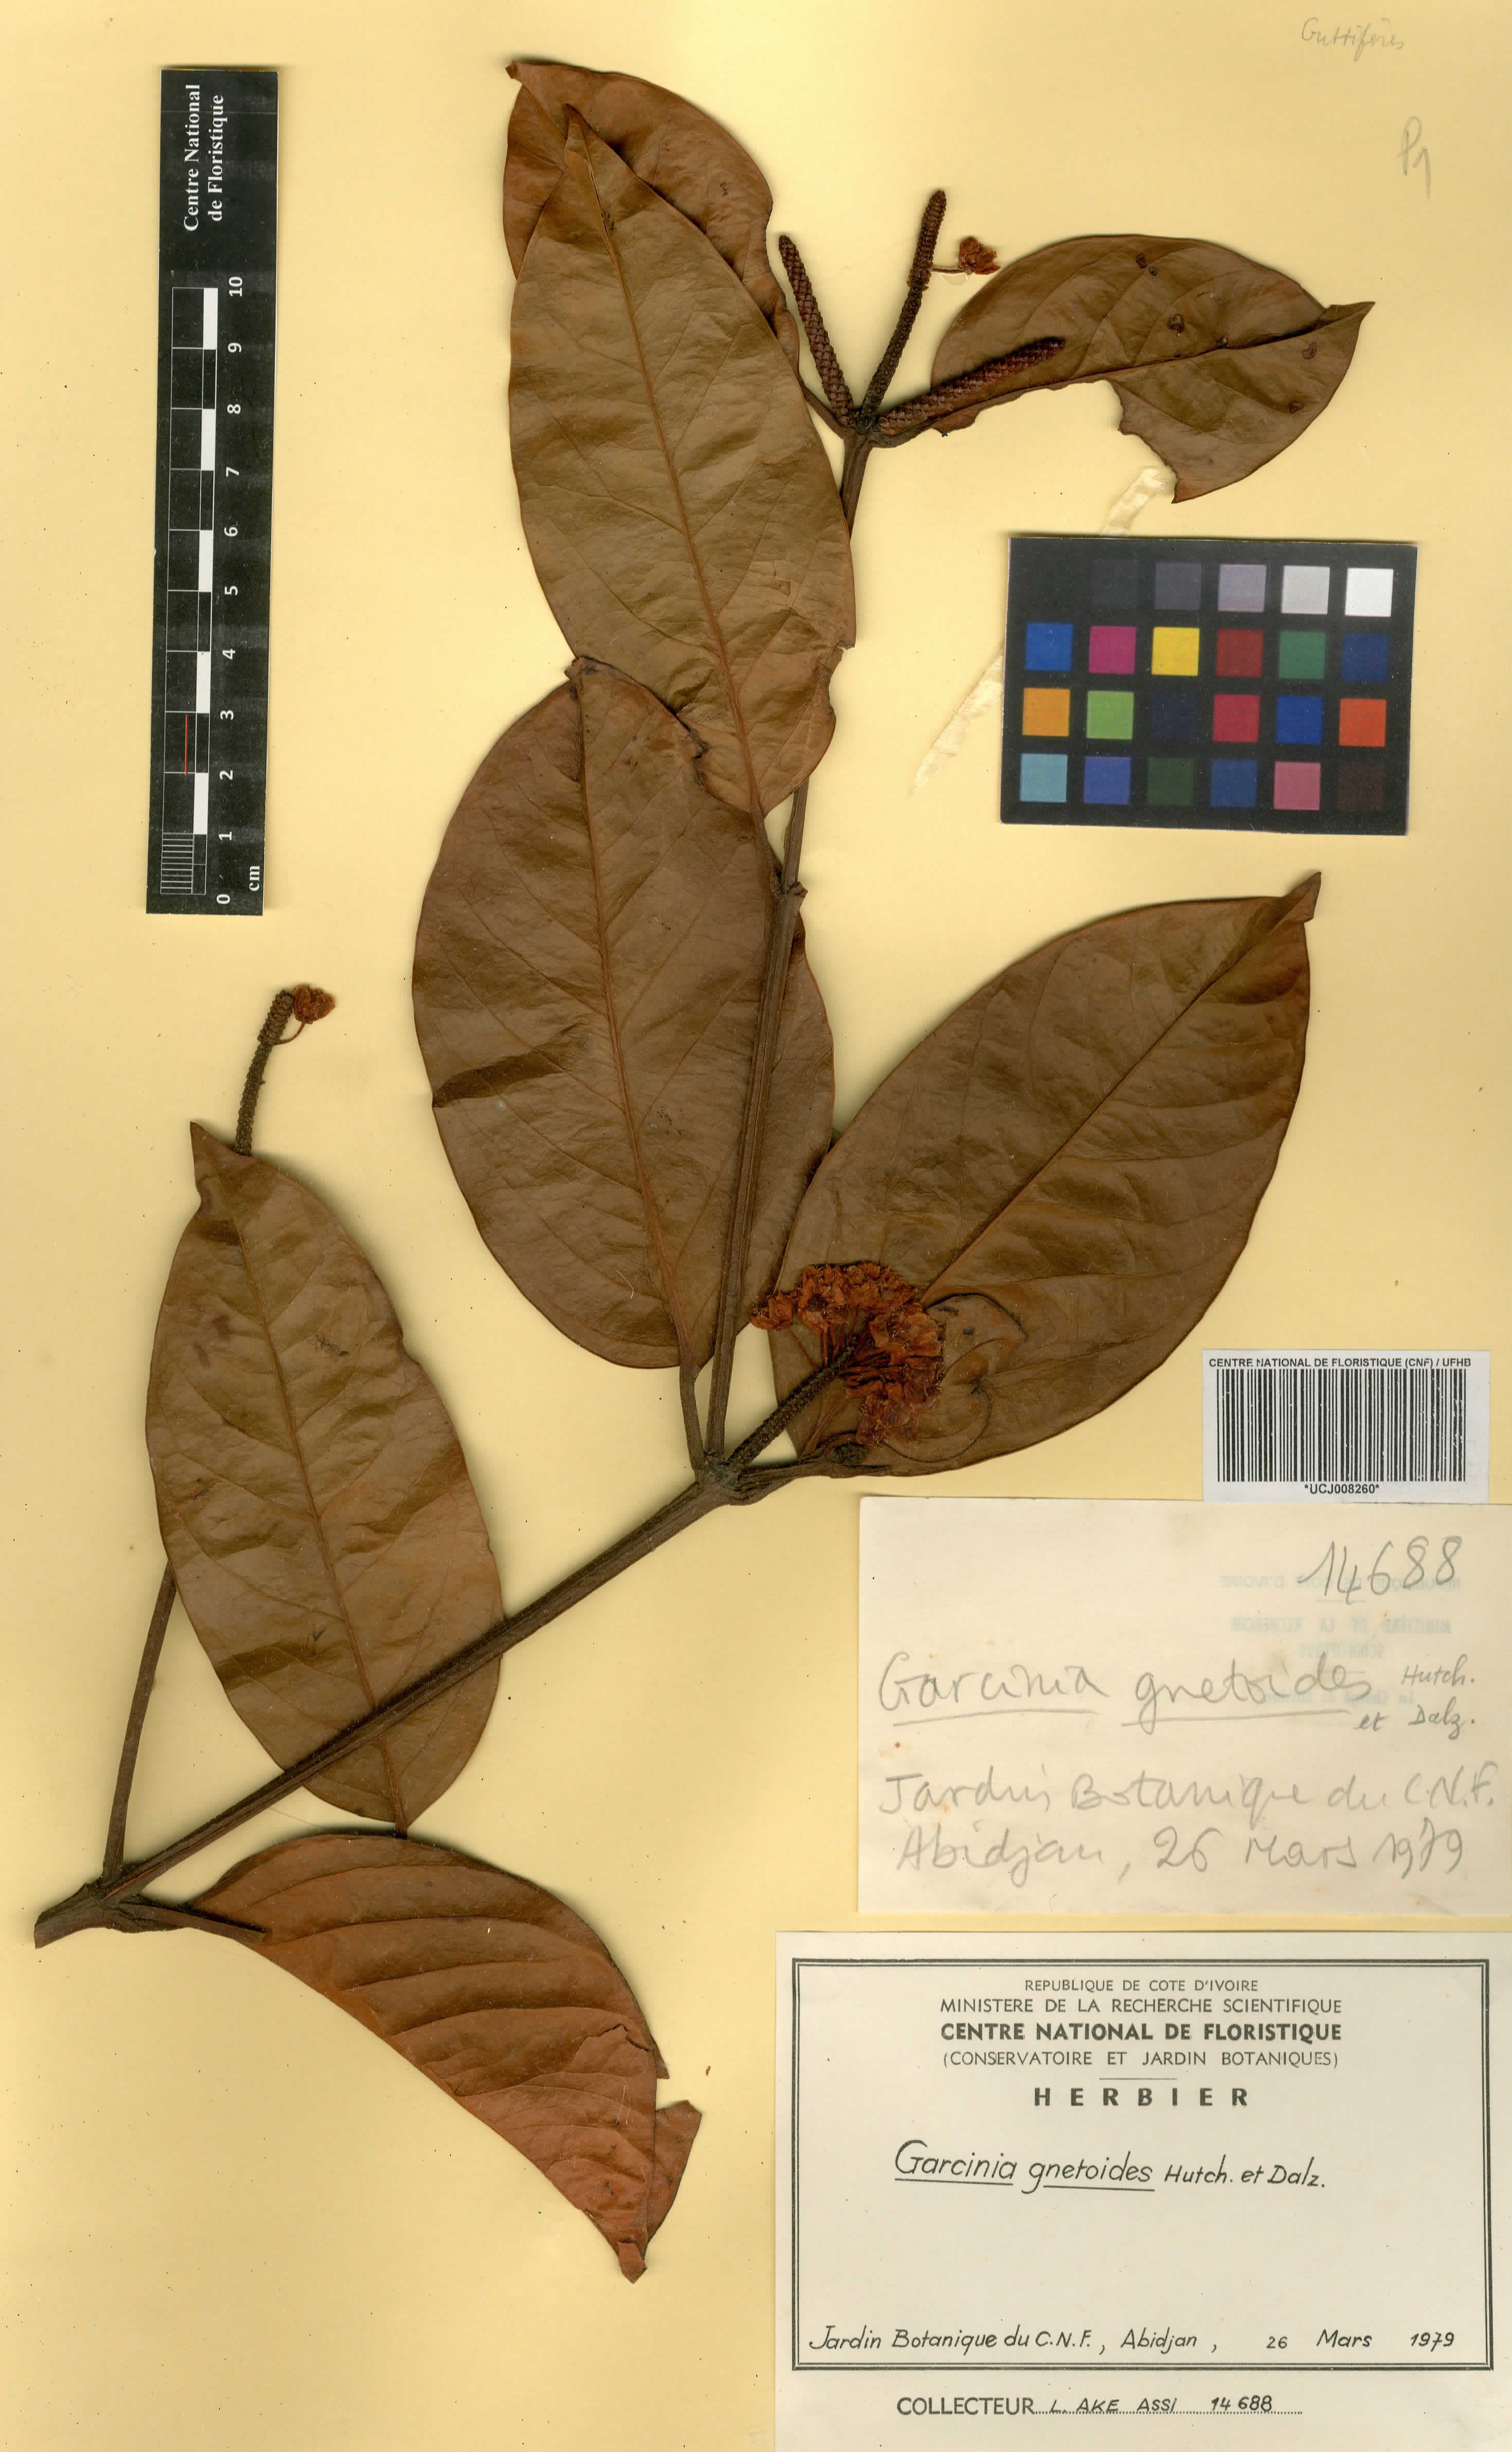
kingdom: Plantae
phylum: Tracheophyta
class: Magnoliopsida
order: Malpighiales
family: Clusiaceae
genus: Garcinia
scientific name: Garcinia gnetoides
